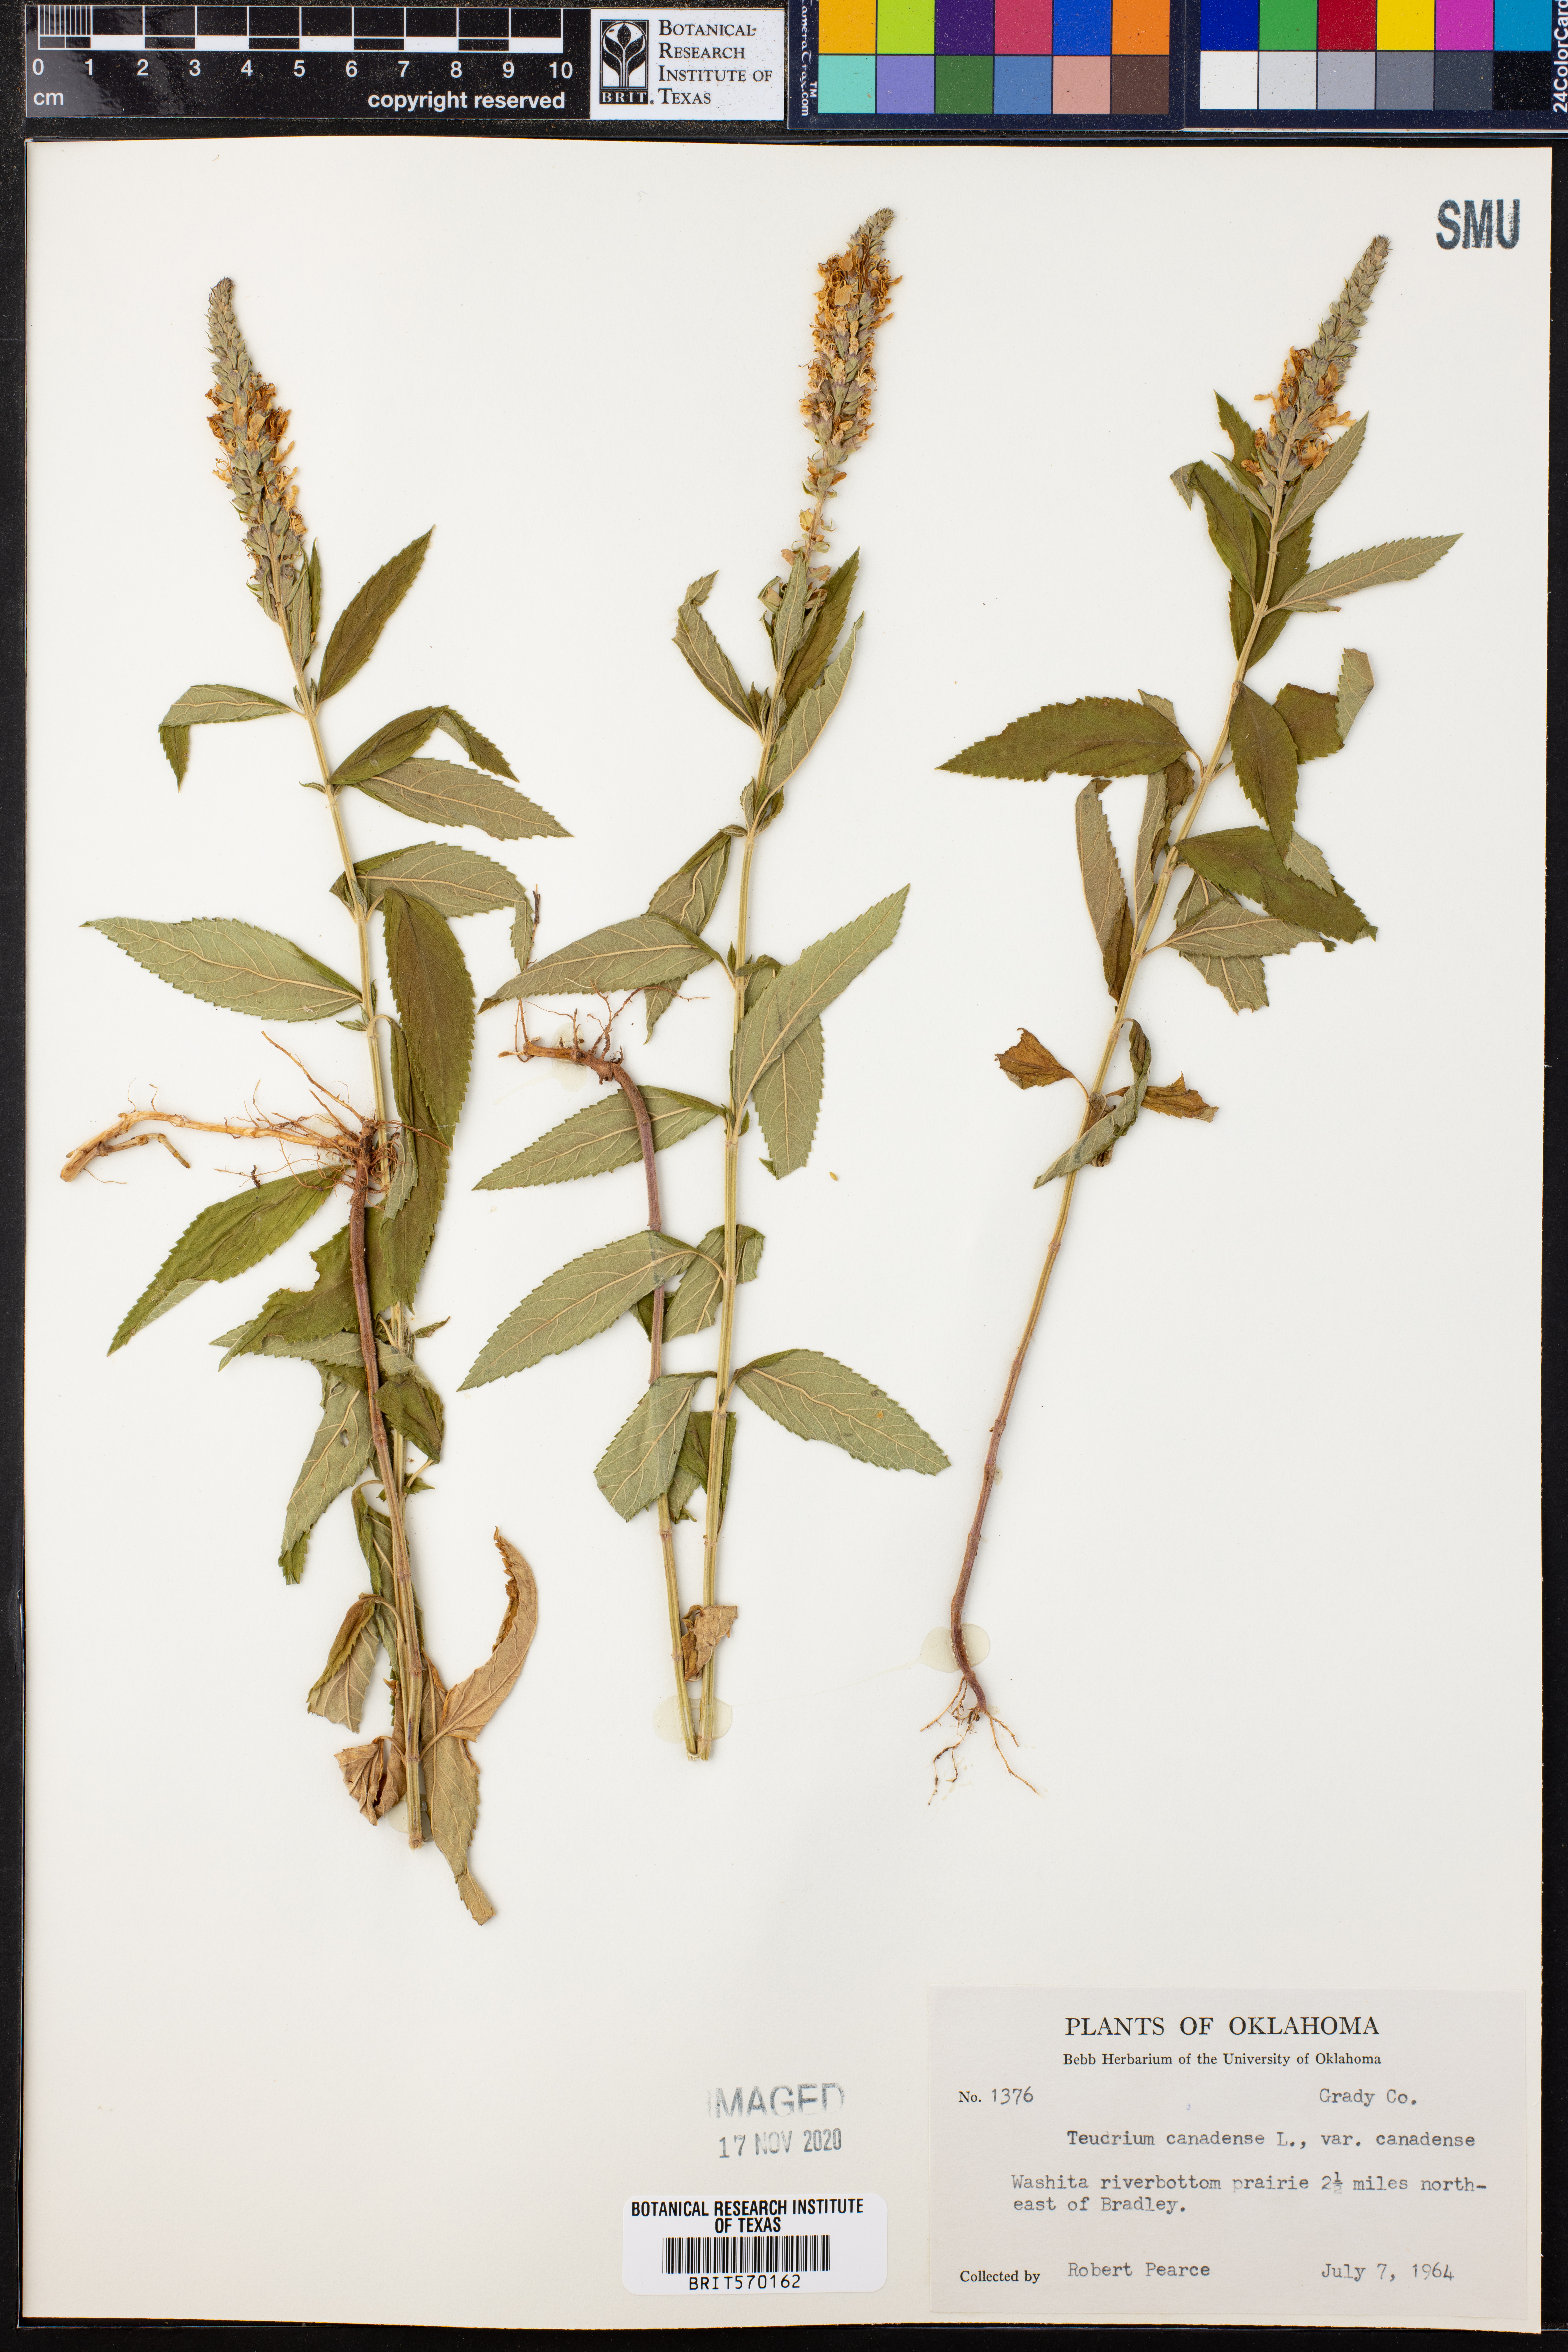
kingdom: Plantae
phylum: Tracheophyta
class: Magnoliopsida
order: Lamiales
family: Lamiaceae
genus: Teucrium
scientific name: Teucrium canadense
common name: American germander
